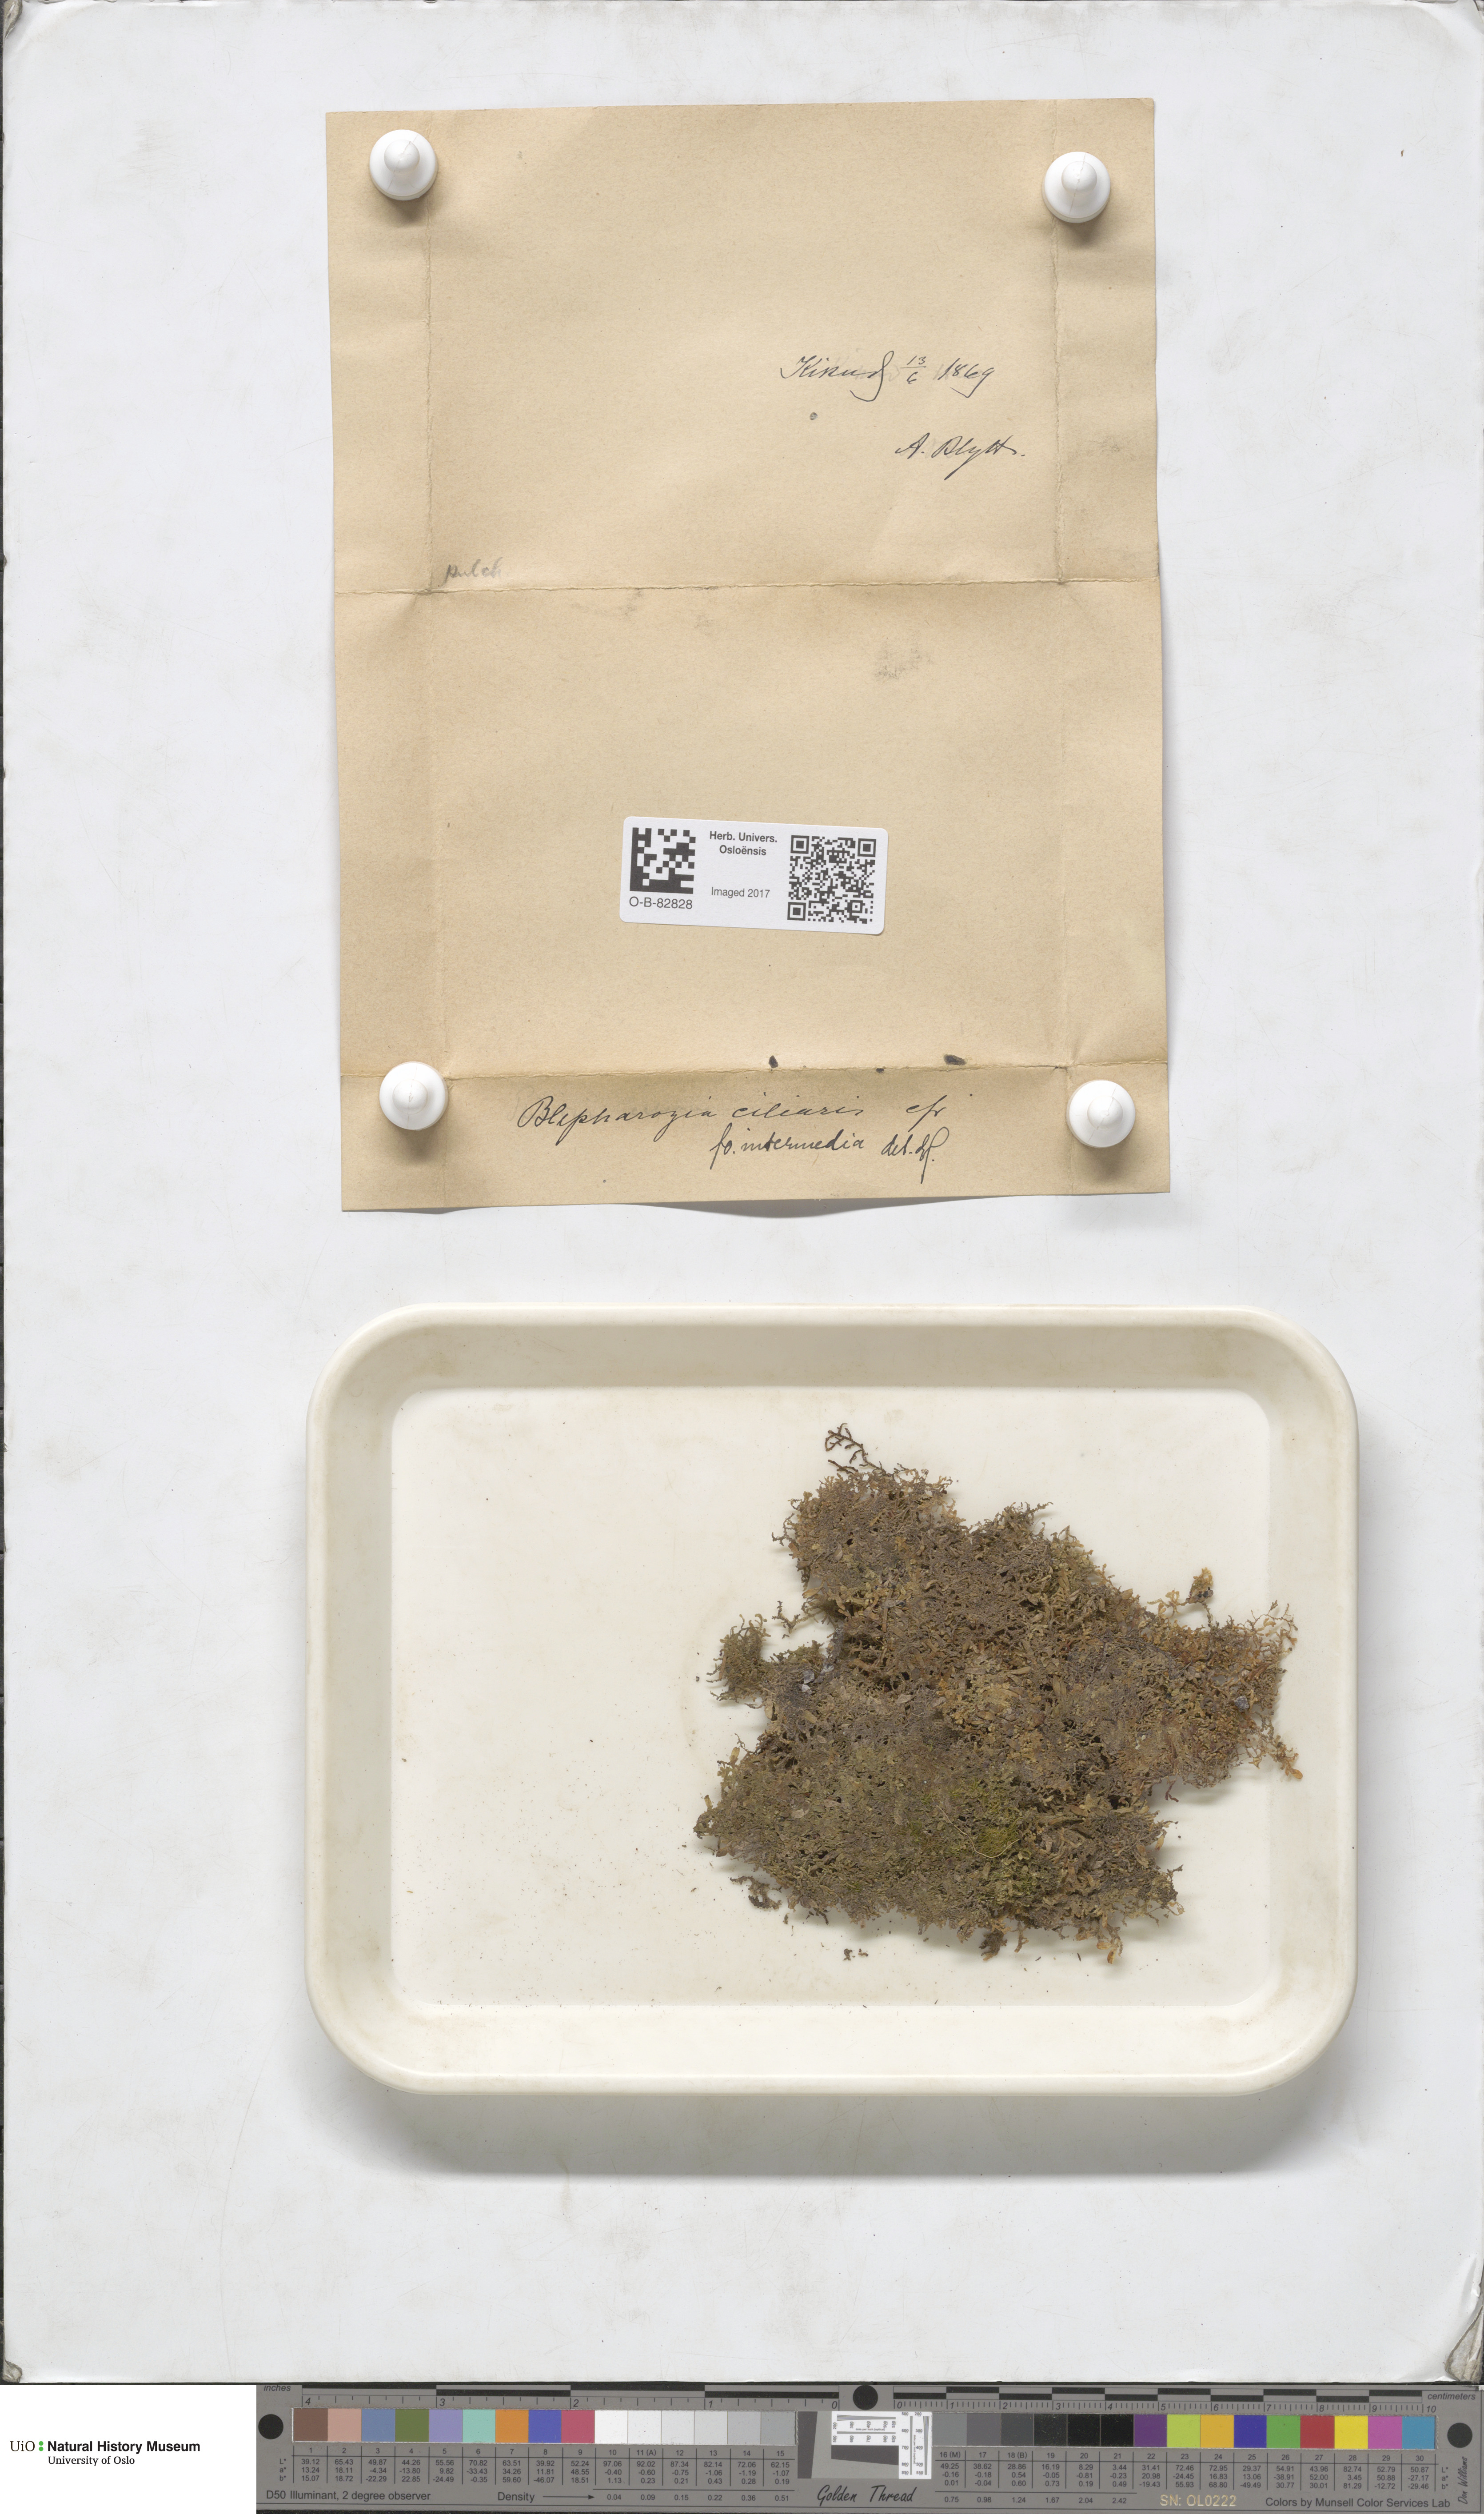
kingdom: Plantae
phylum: Marchantiophyta
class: Jungermanniopsida
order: Ptilidiales
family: Ptilidiaceae
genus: Ptilidium
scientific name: Ptilidium ciliare
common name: Ciliate fringewort
